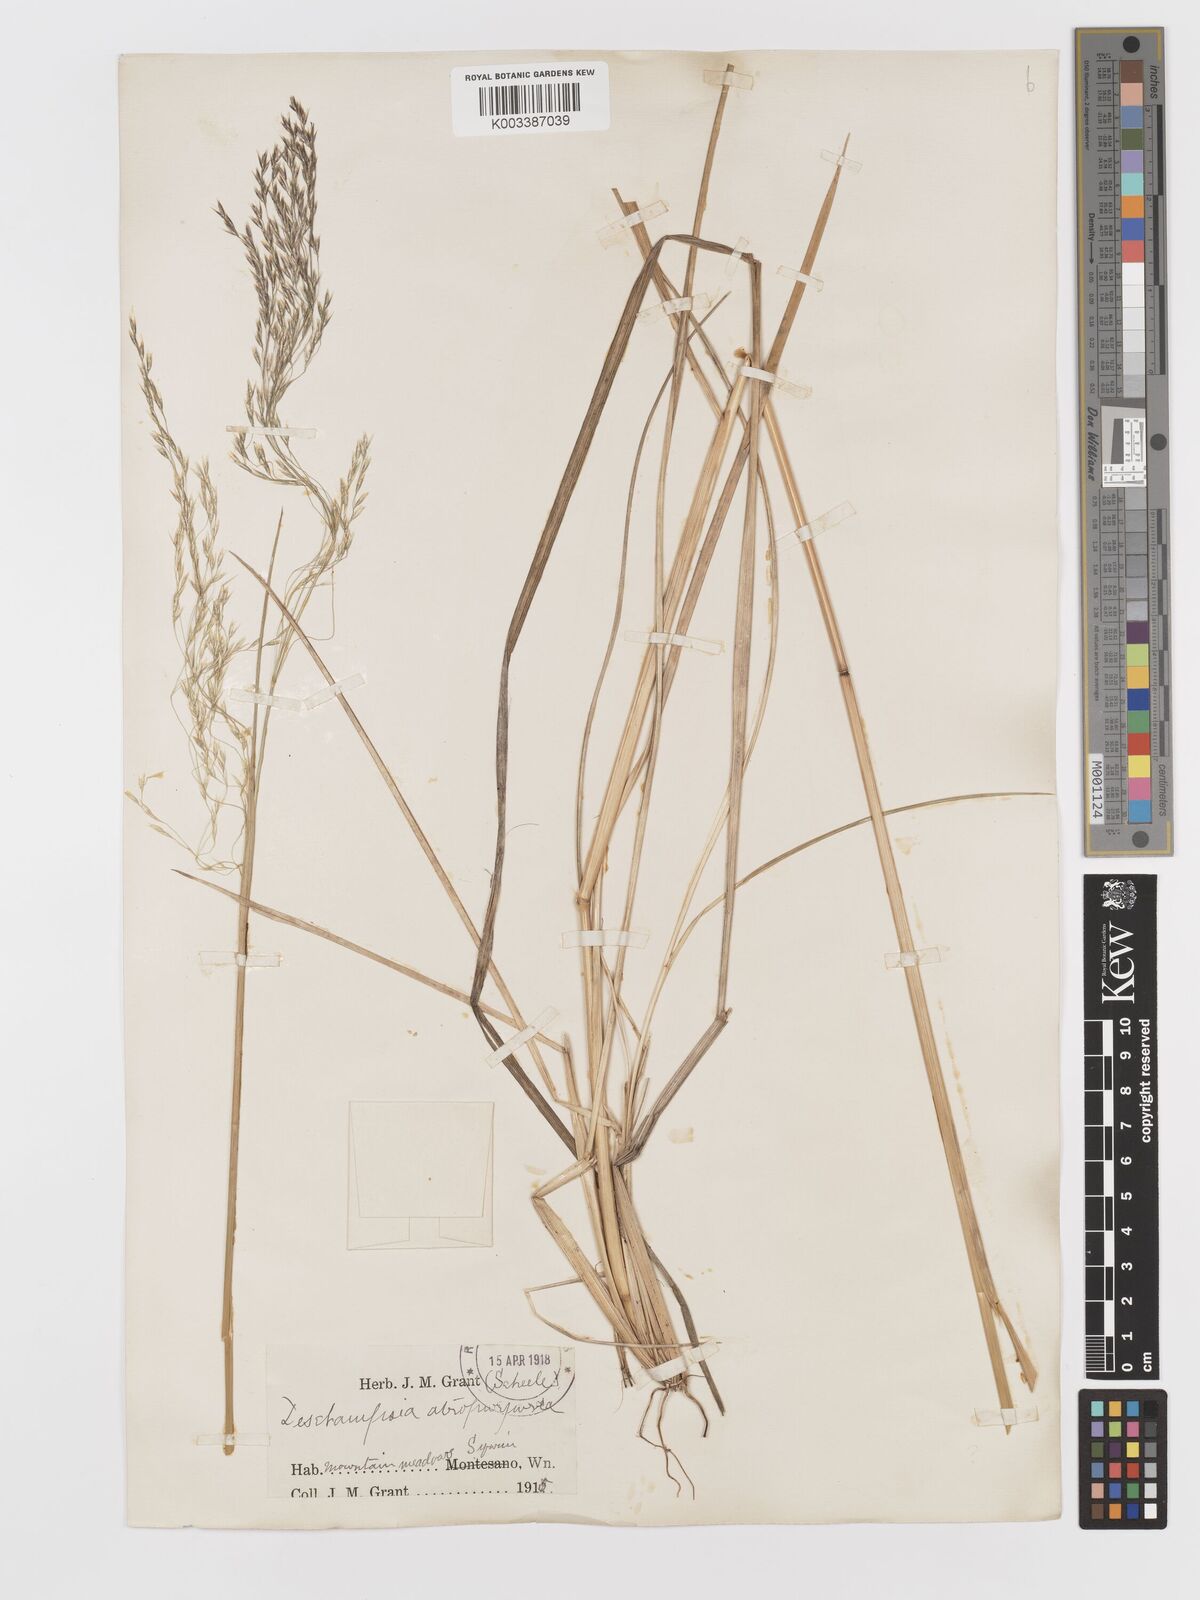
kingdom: Plantae
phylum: Tracheophyta
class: Liliopsida
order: Poales
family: Poaceae
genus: Vahlodea
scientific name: Vahlodea atropurpurea
